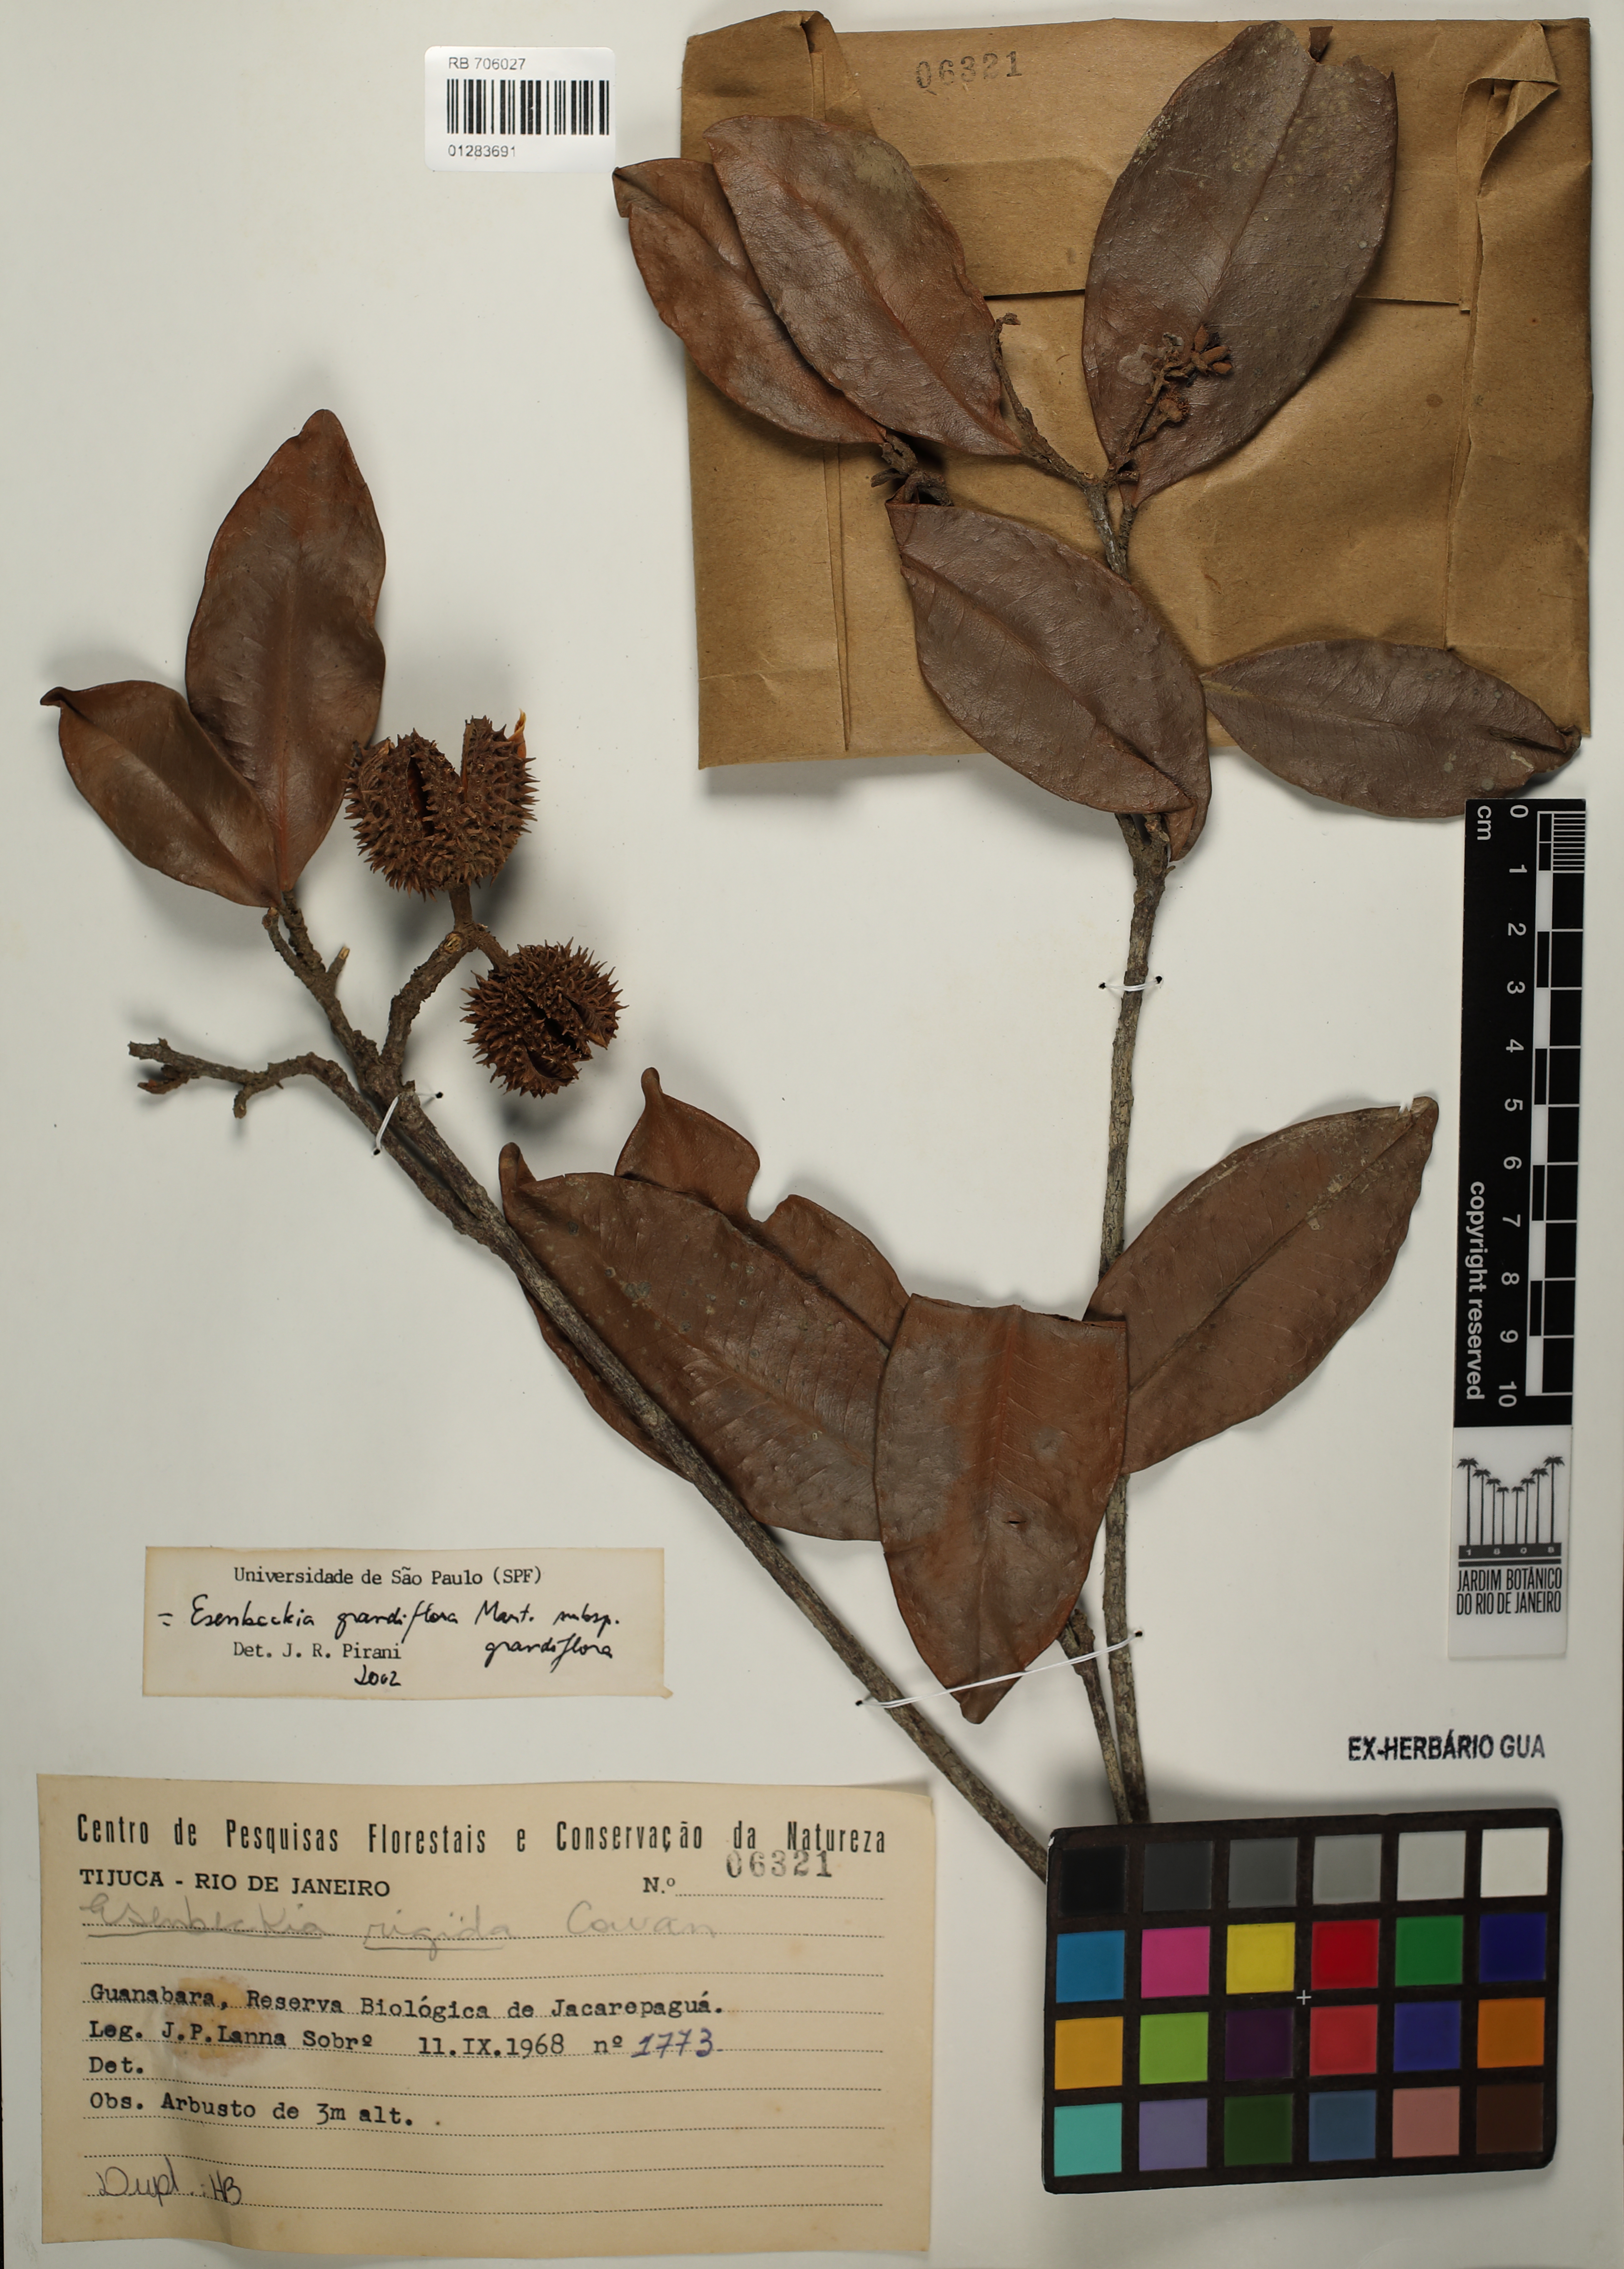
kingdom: Plantae
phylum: Tracheophyta
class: Magnoliopsida
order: Sapindales
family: Rutaceae
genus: Esenbeckia
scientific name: Esenbeckia grandiflora
